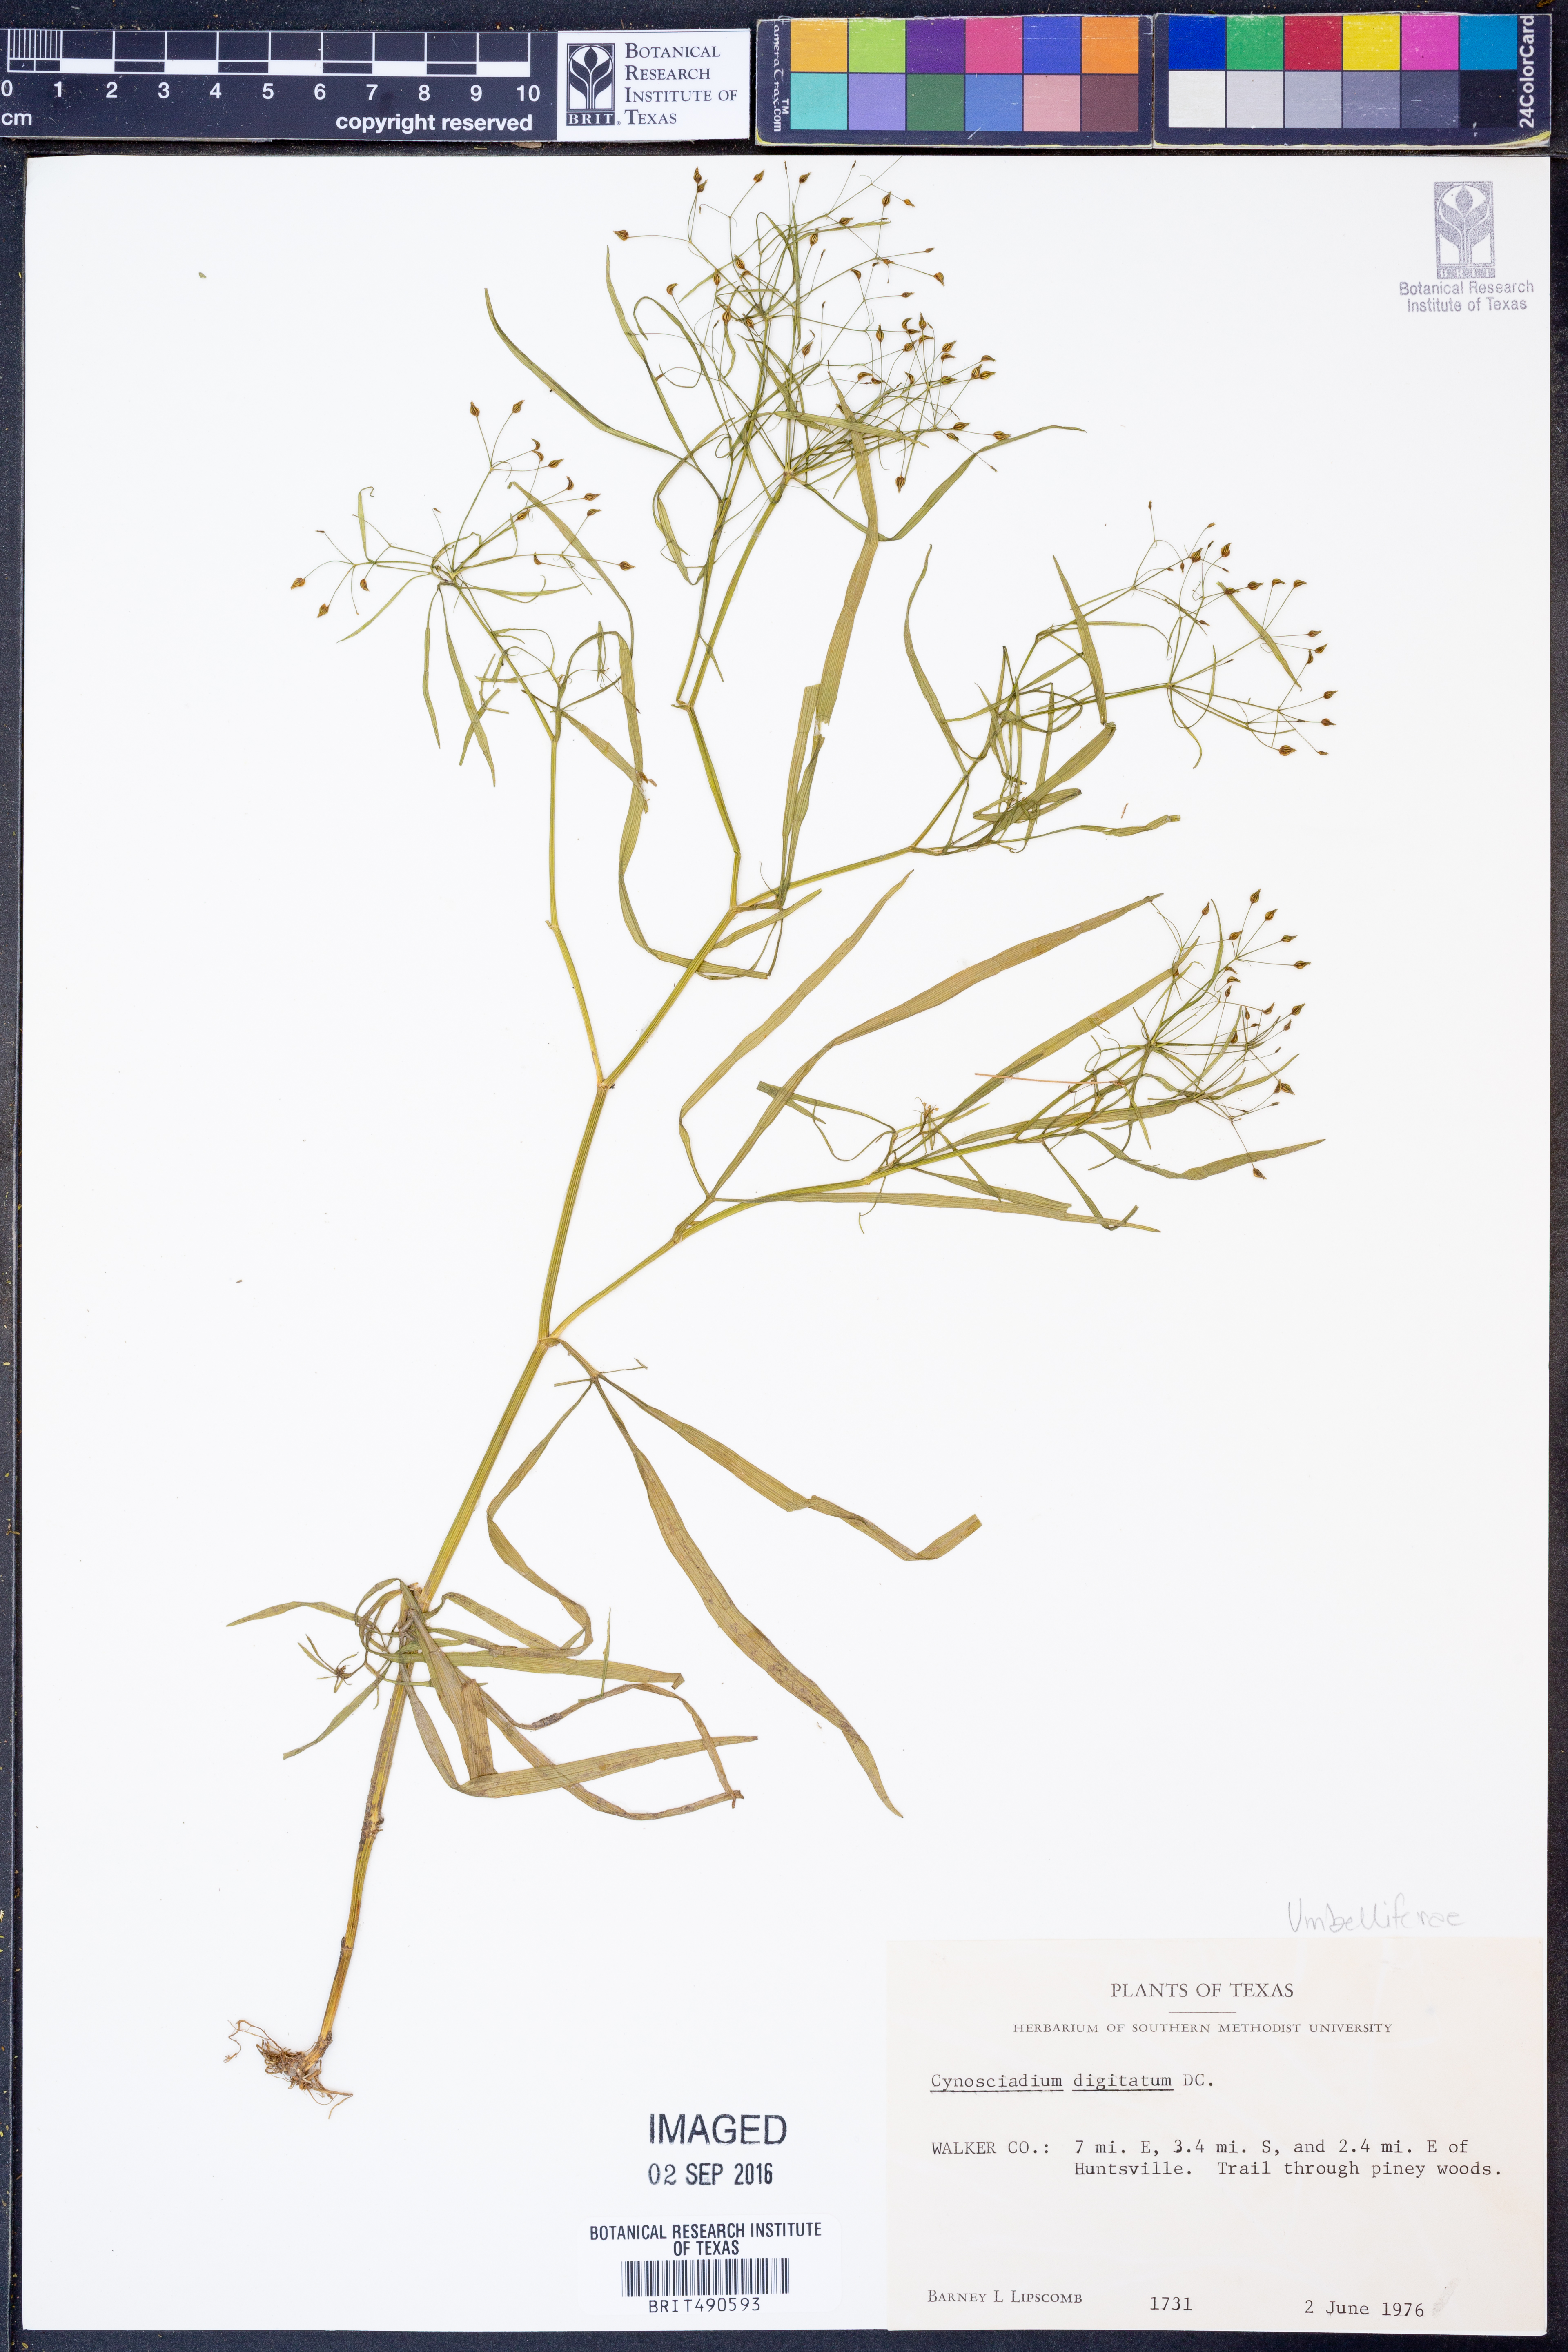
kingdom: Plantae
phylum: Tracheophyta
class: Magnoliopsida
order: Apiales
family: Apiaceae
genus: Cynosciadium
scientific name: Cynosciadium digitatum
